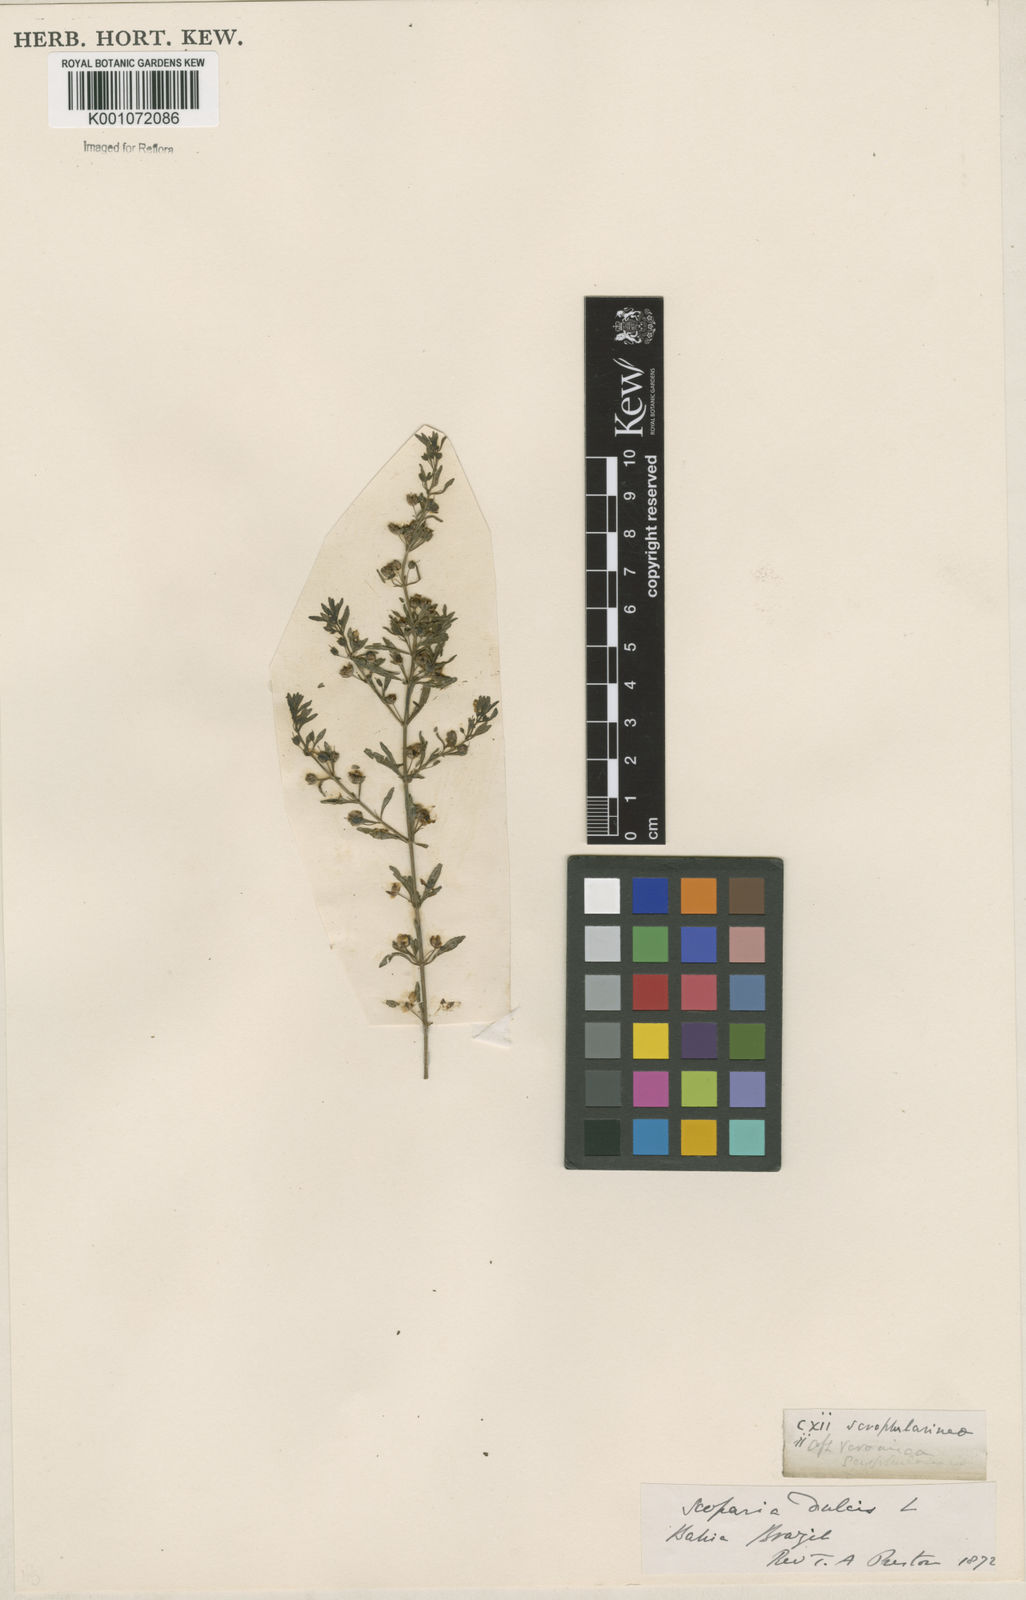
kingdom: Plantae
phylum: Tracheophyta
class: Magnoliopsida
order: Lamiales
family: Plantaginaceae
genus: Scoparia
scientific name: Scoparia dulcis
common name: Scoparia-weed
